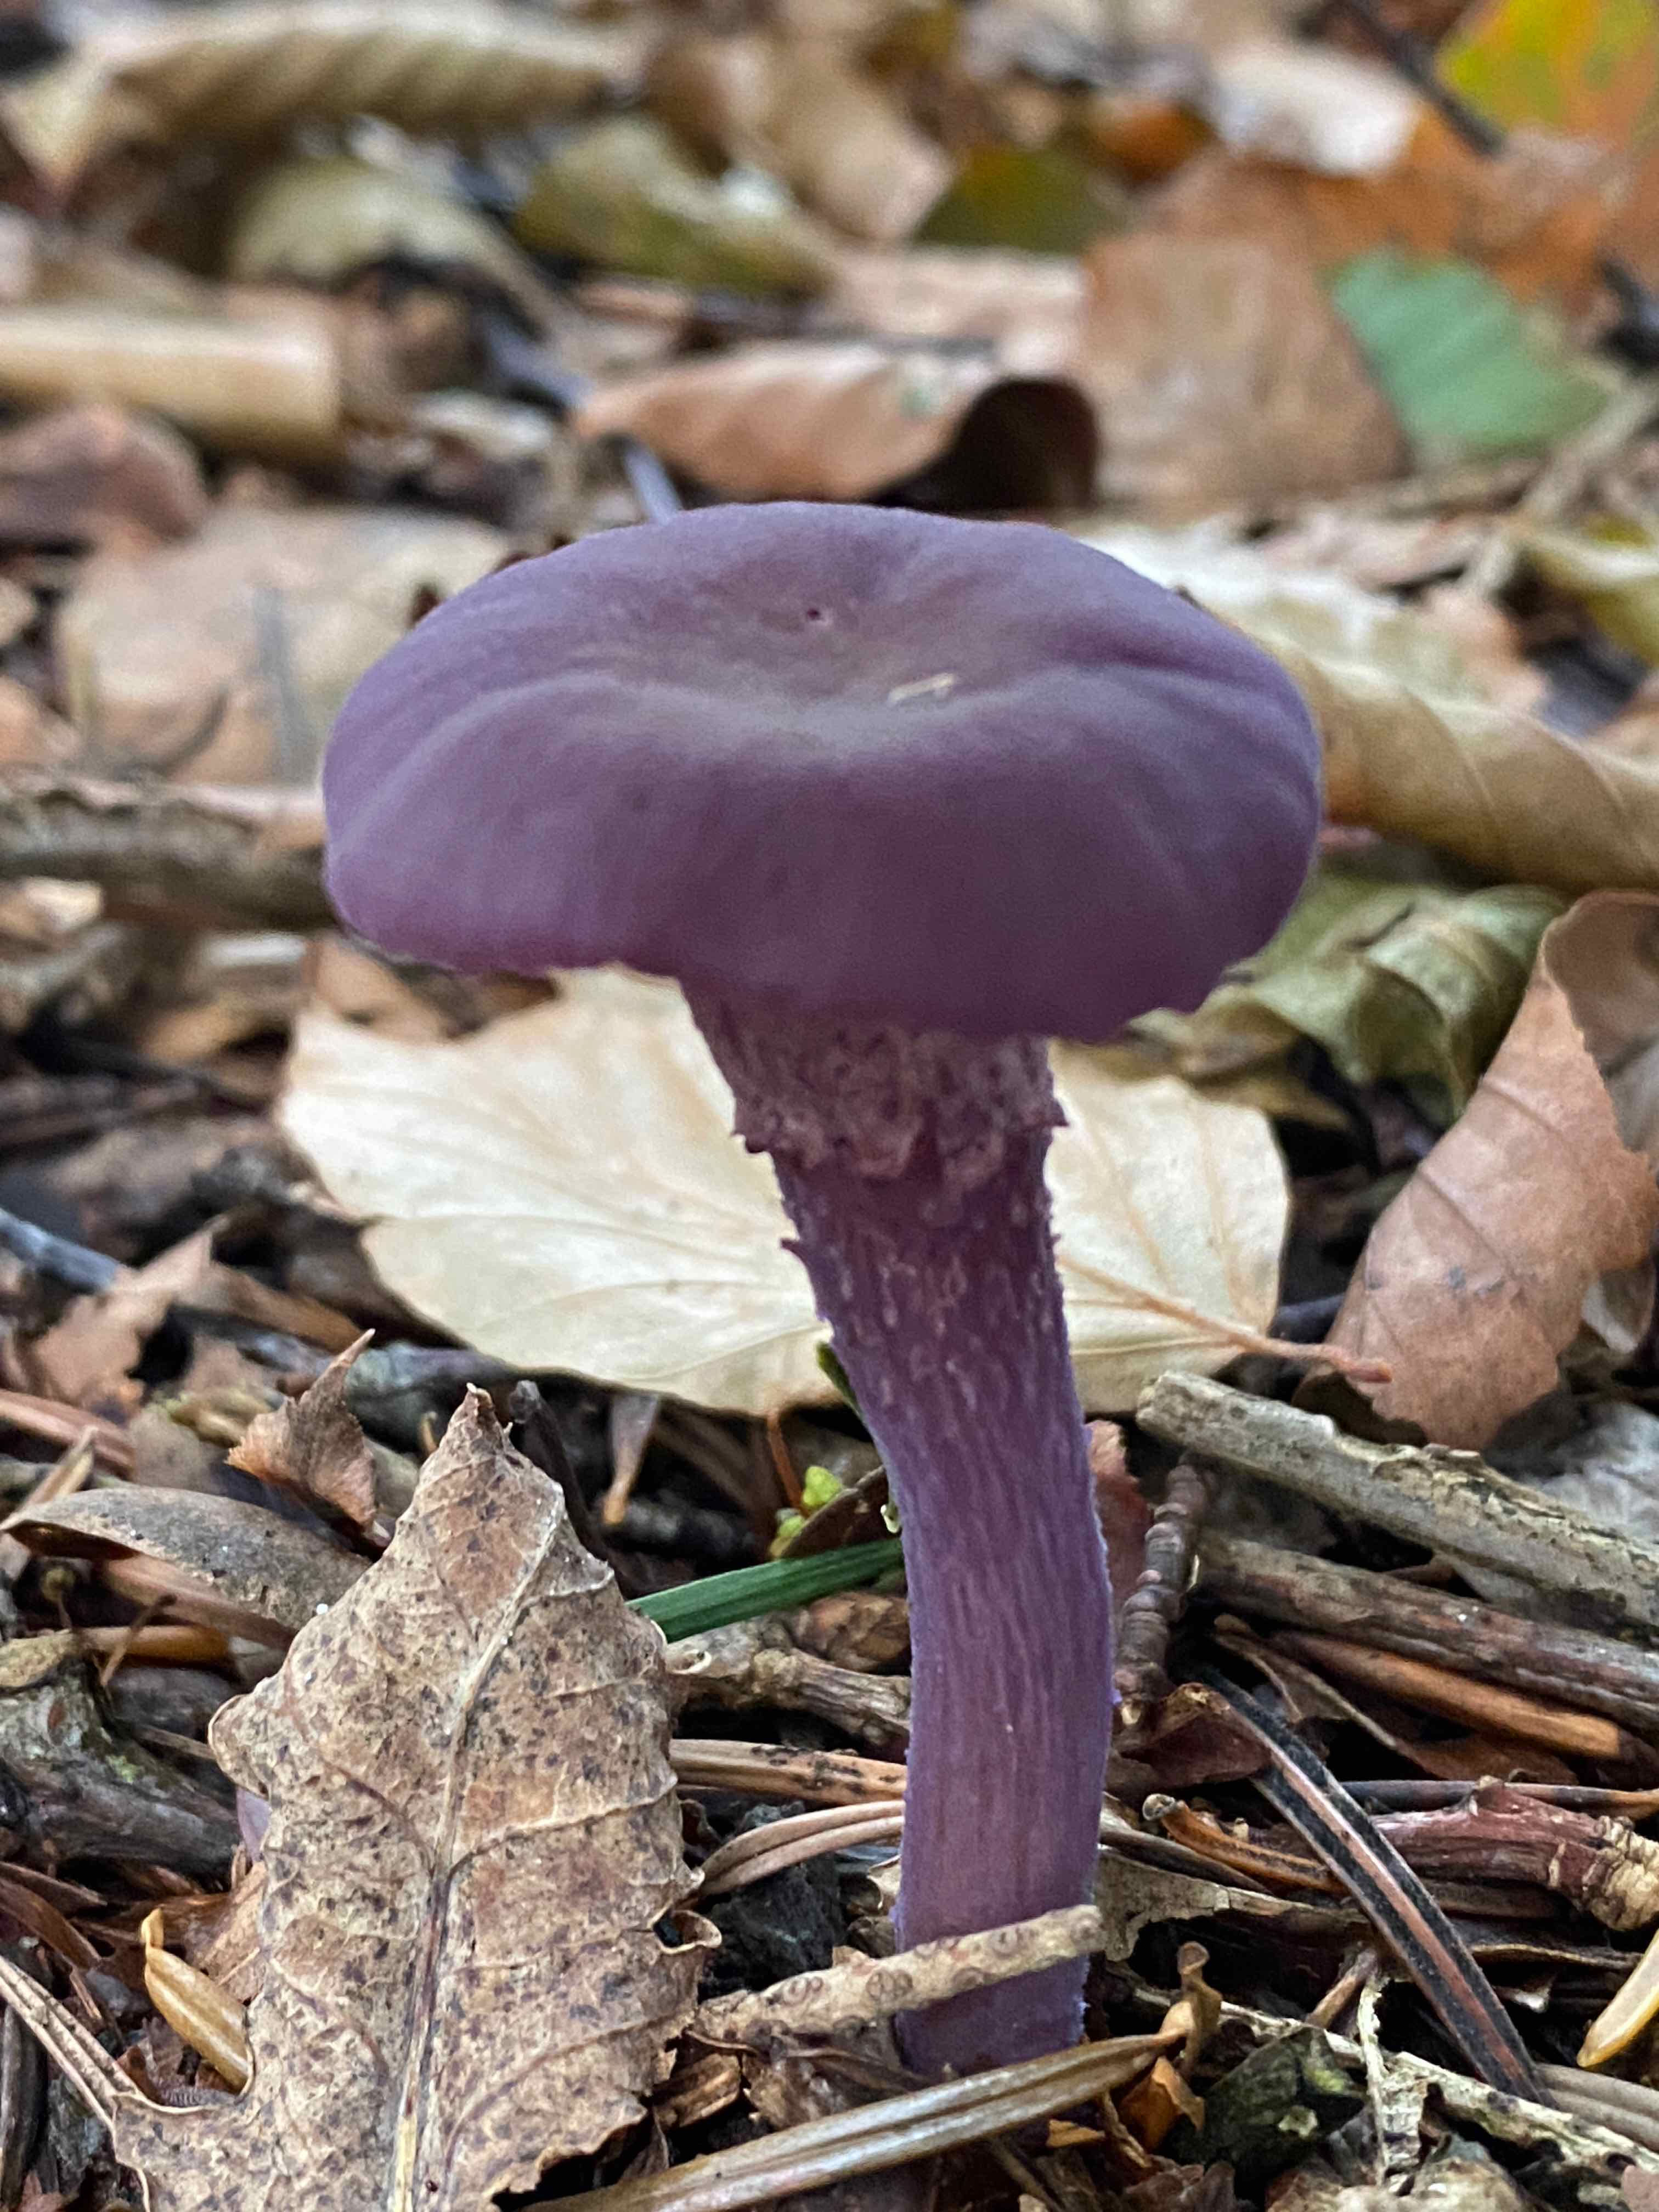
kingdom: Fungi
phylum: Basidiomycota
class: Agaricomycetes
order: Agaricales
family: Hydnangiaceae
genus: Laccaria
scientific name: Laccaria amethystina
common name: violet ametysthat
